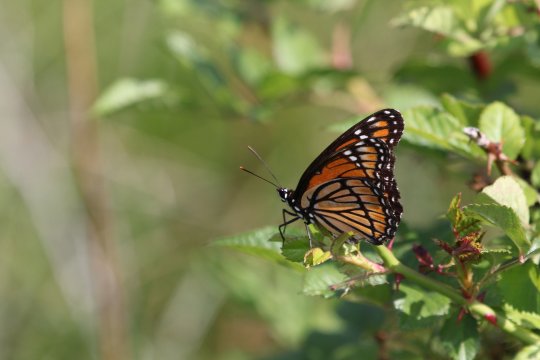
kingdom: Animalia
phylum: Arthropoda
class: Insecta
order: Lepidoptera
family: Nymphalidae
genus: Limenitis
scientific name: Limenitis archippus
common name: Viceroy
